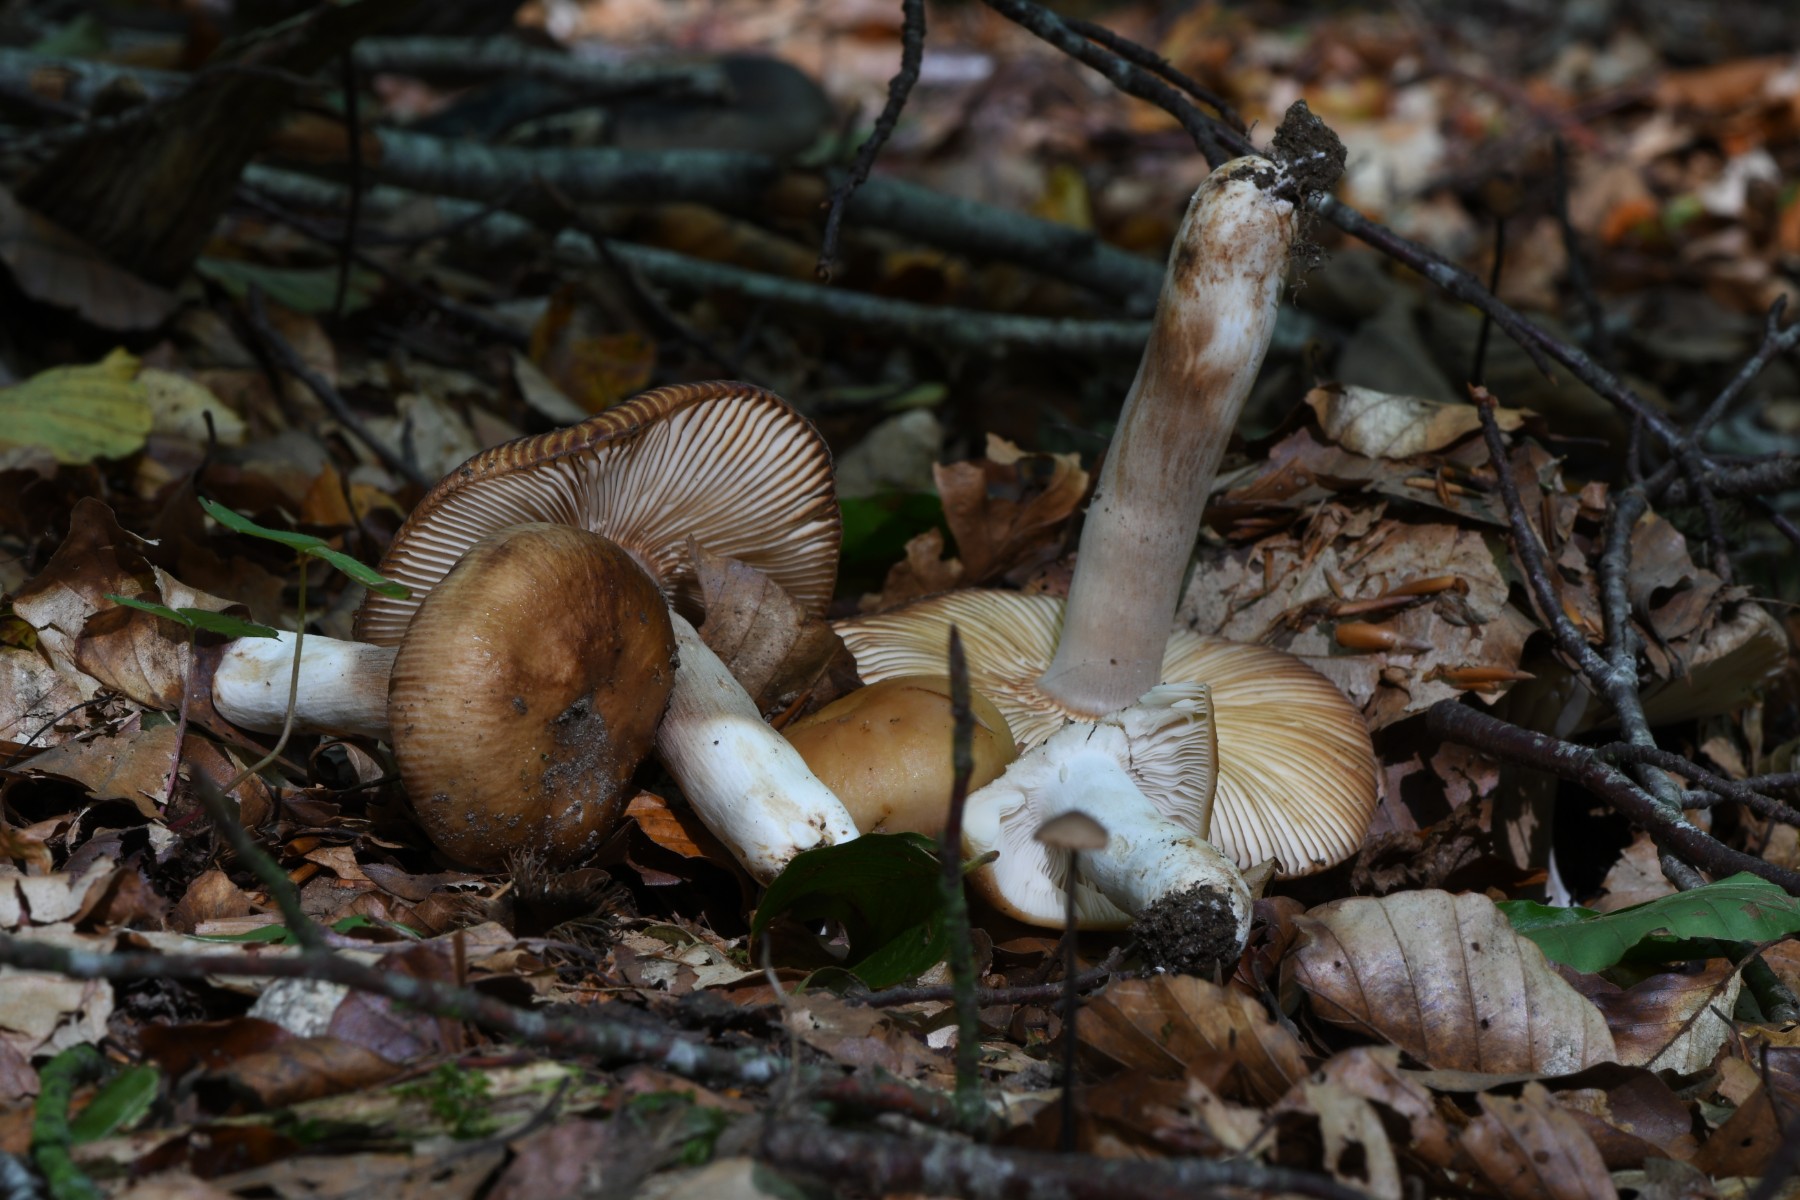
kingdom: Fungi
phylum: Basidiomycota
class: Agaricomycetes
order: Russulales
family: Russulaceae
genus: Russula
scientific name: Russula grata
